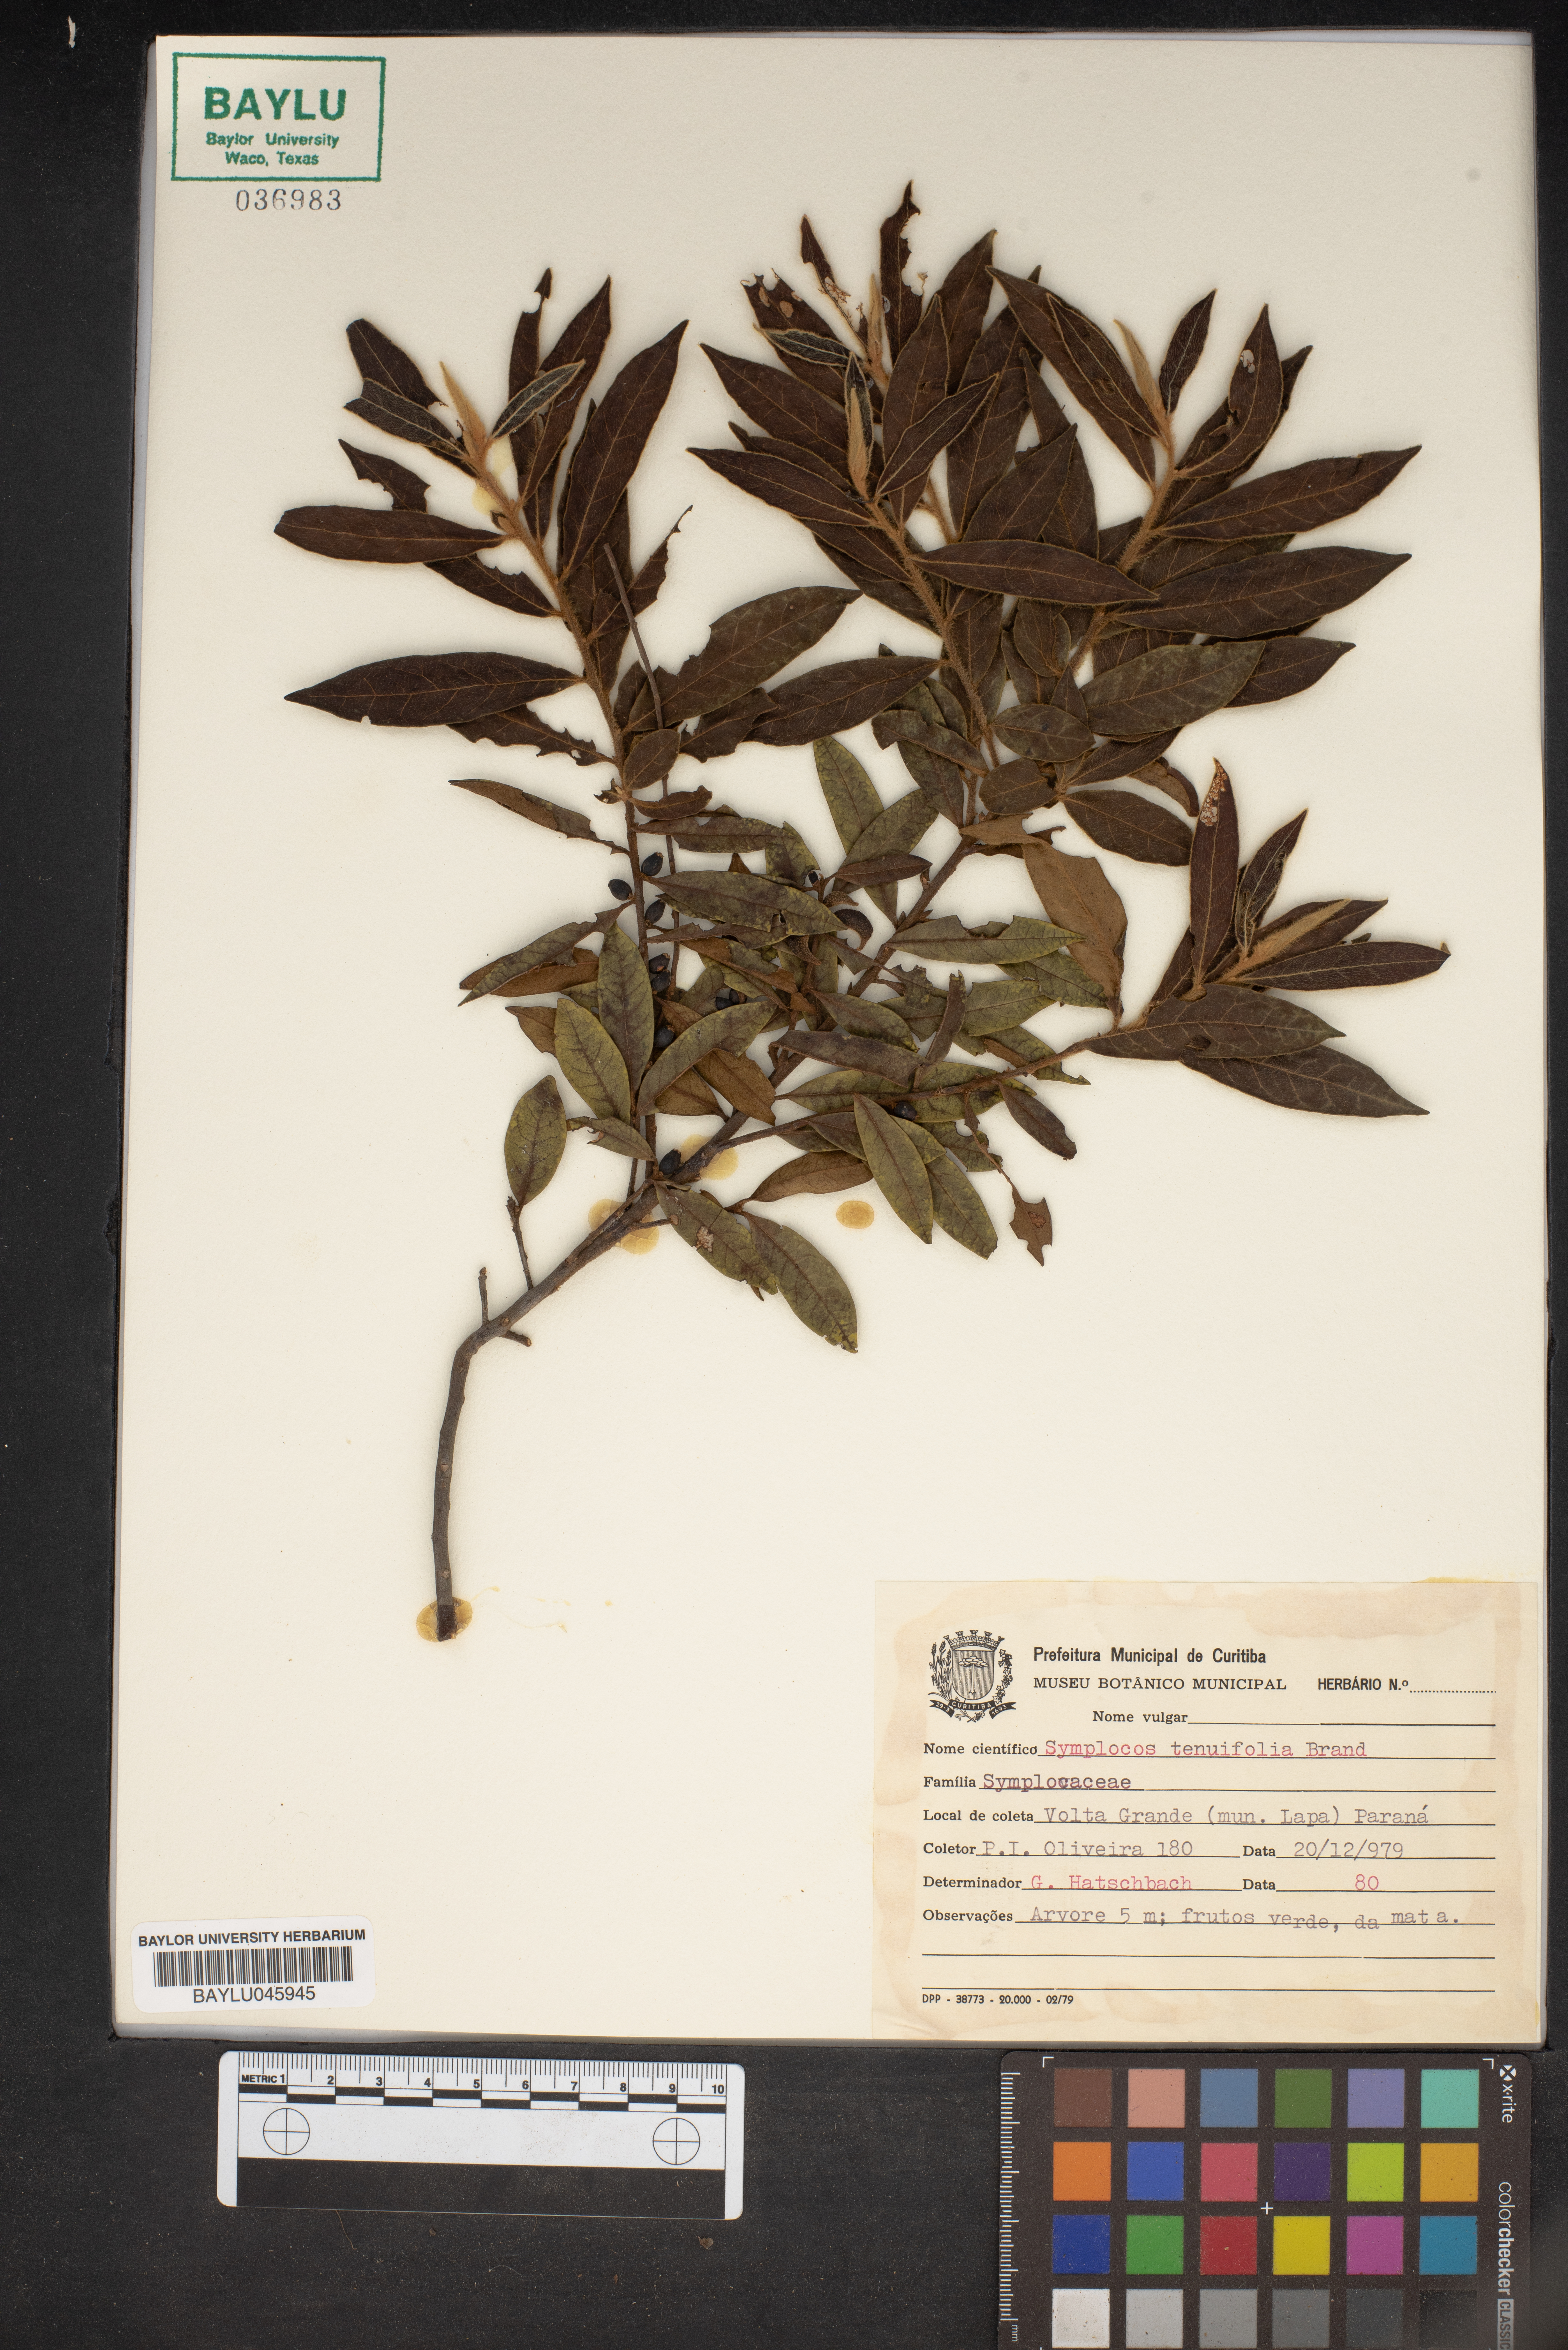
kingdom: Plantae
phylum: Tracheophyta
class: Magnoliopsida
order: Ericales
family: Symplocaceae
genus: Symplocos
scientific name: Symplocos tenuifolia
